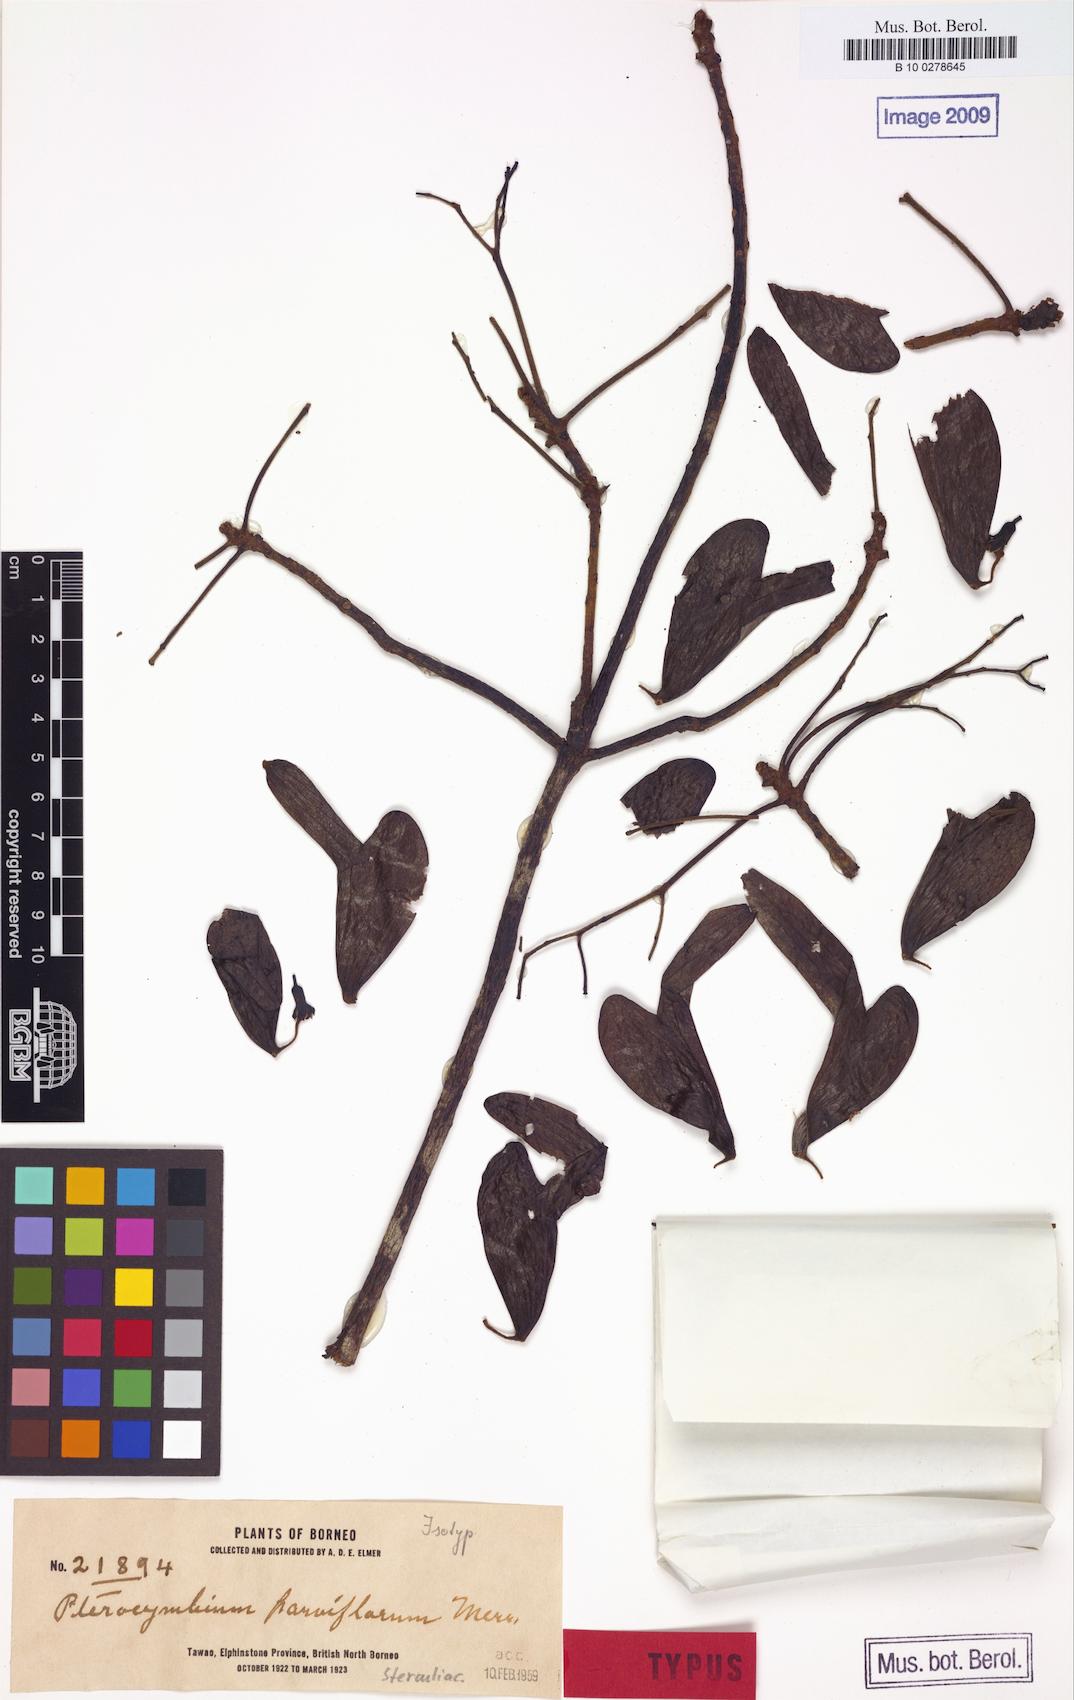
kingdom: Plantae
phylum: Tracheophyta
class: Magnoliopsida
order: Malvales
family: Malvaceae
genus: Pterocymbium
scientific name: Pterocymbium parviflorum
